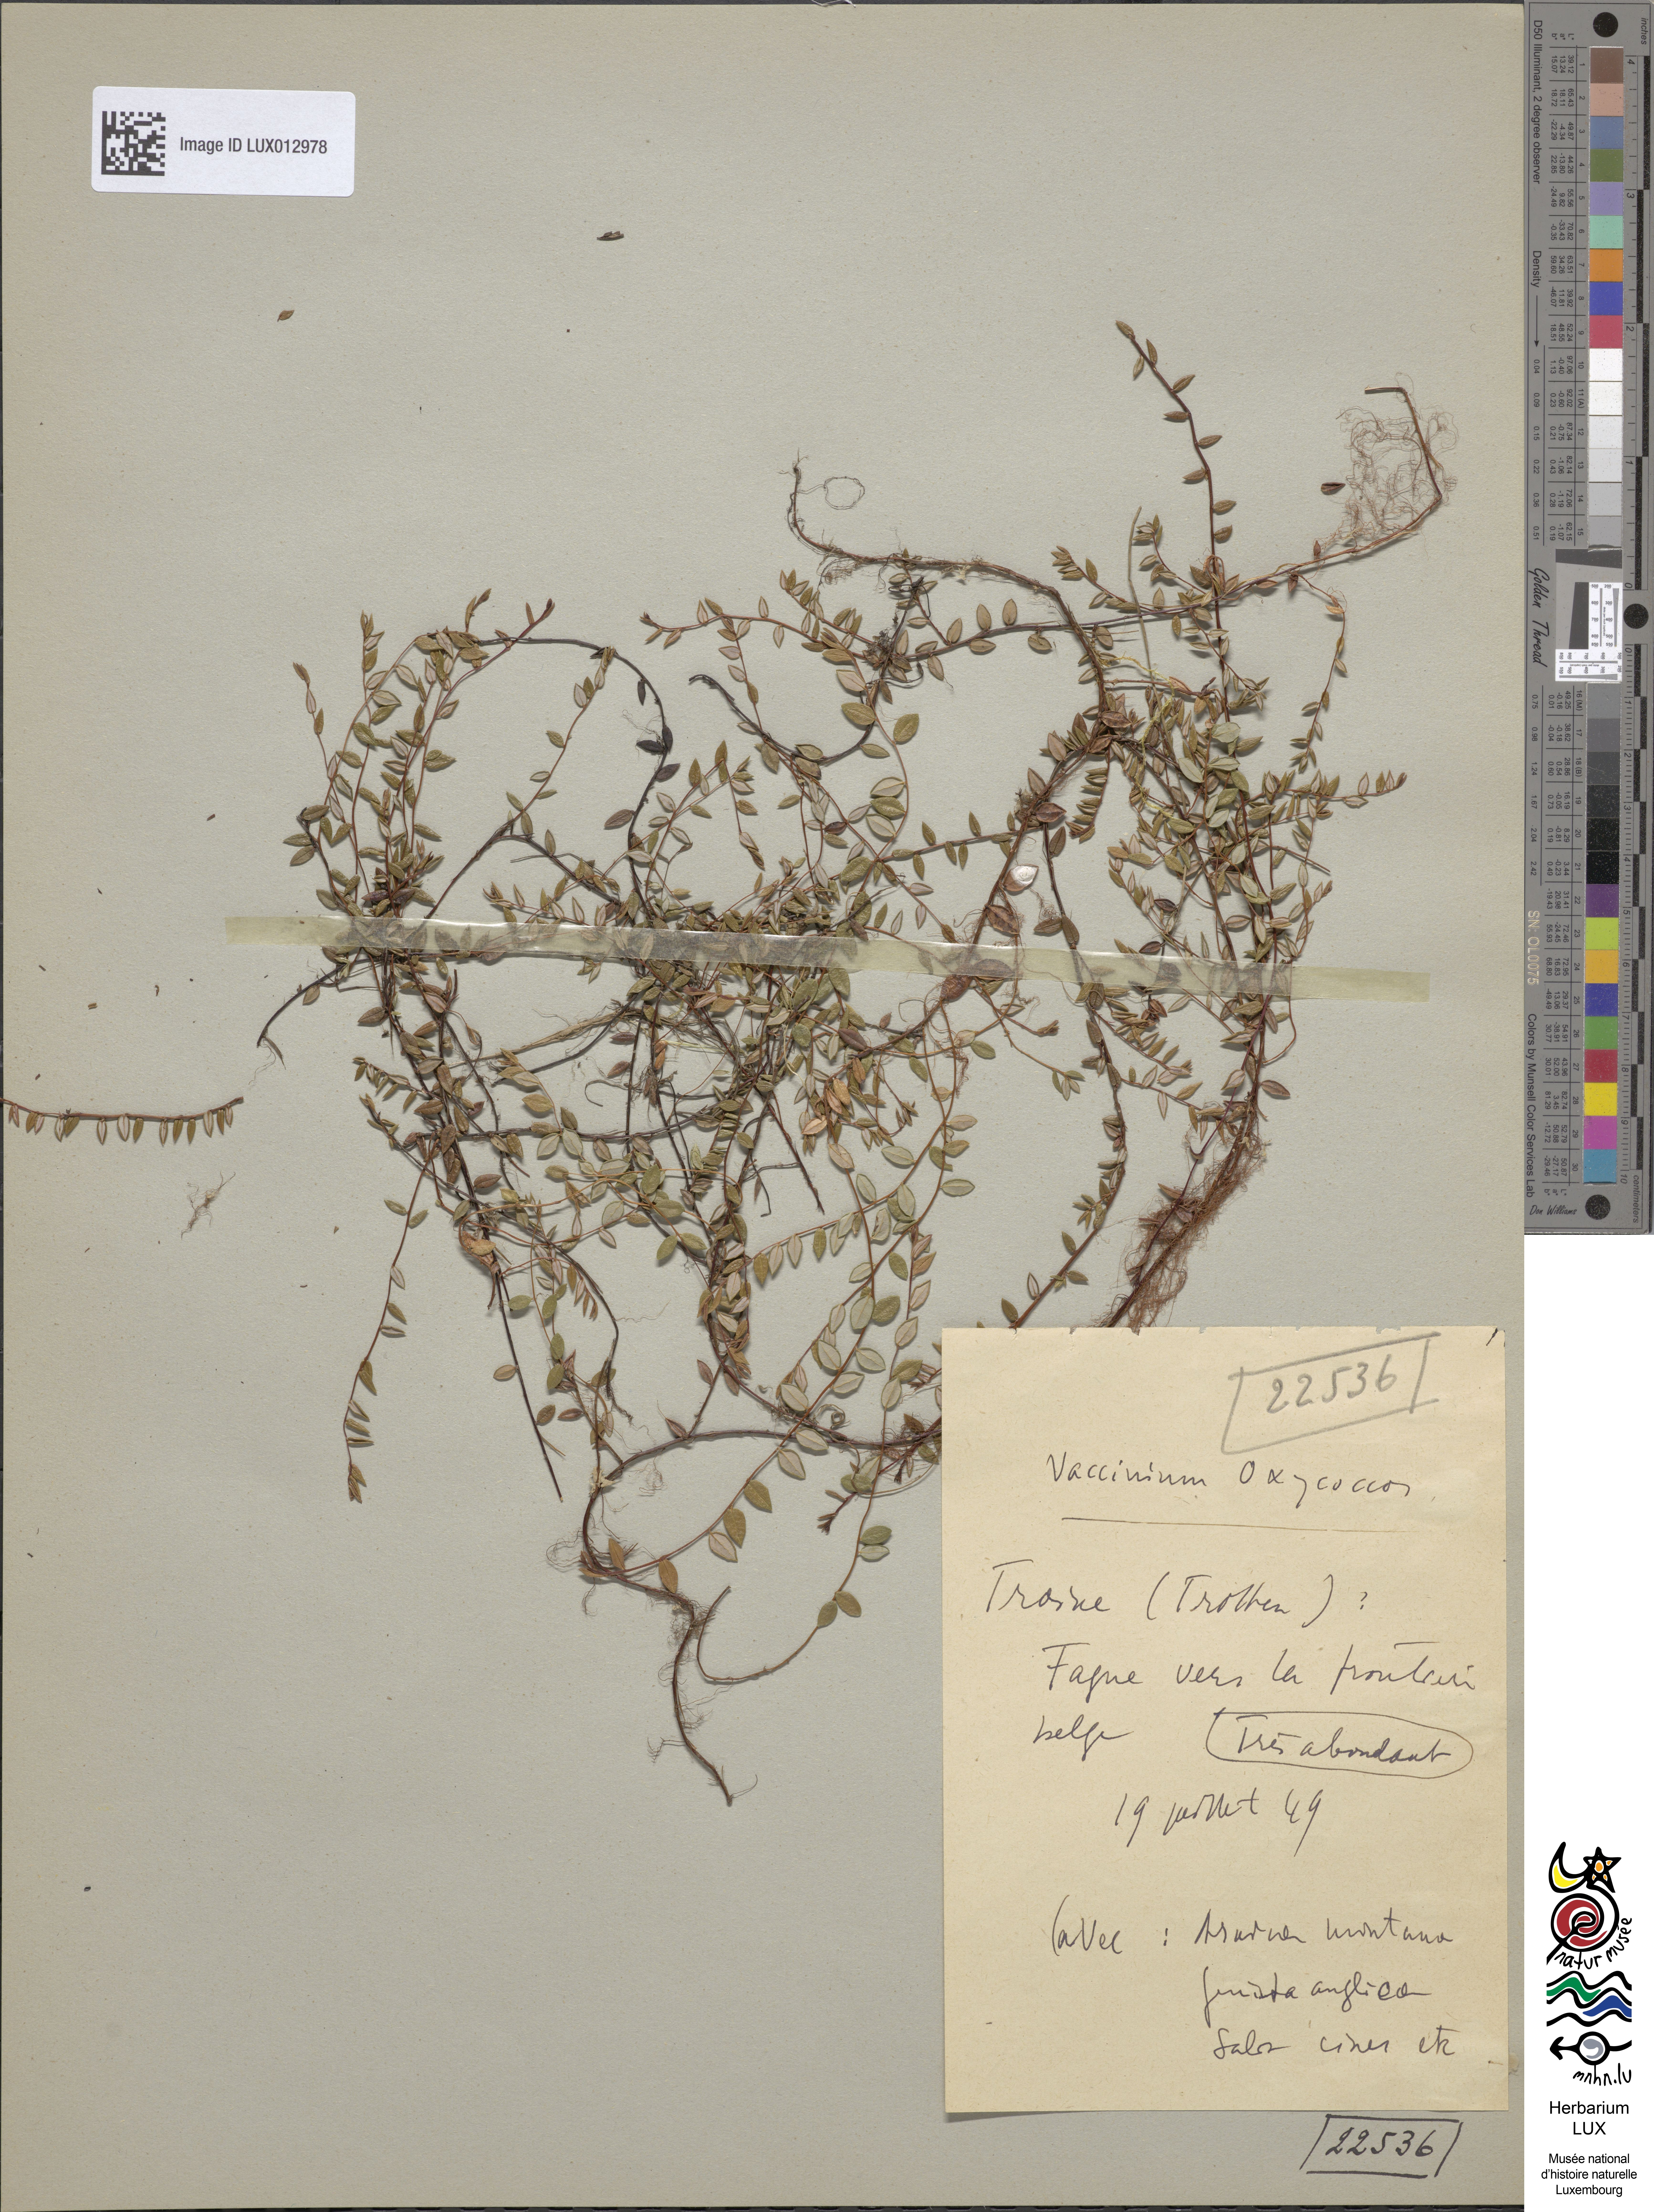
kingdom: Plantae
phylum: Tracheophyta
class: Magnoliopsida
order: Ericales
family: Ericaceae
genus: Vaccinium
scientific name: Vaccinium oxycoccos
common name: Cranberry
